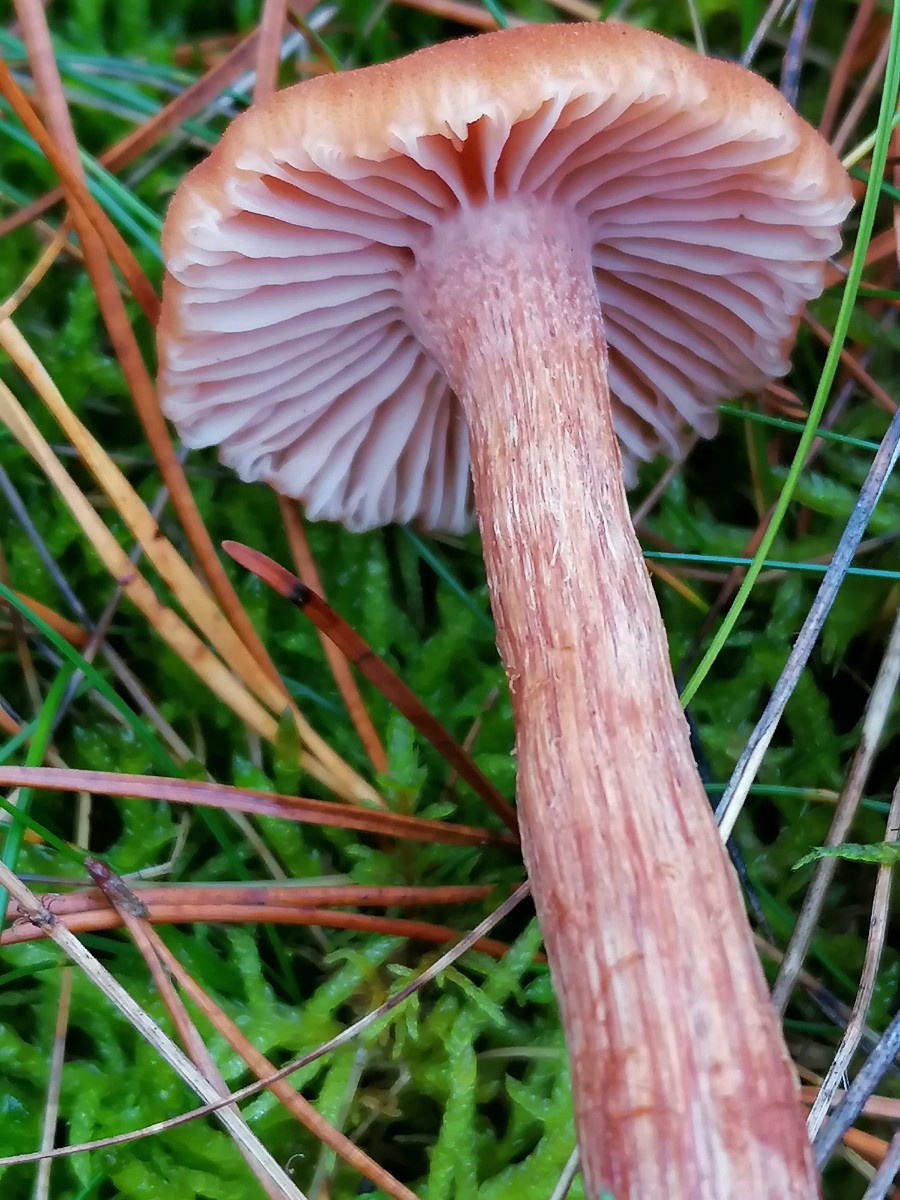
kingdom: Fungi
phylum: Basidiomycota
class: Agaricomycetes
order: Agaricales
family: Hydnangiaceae
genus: Laccaria
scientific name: Laccaria bicolor
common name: tvefarvet ametysthat
